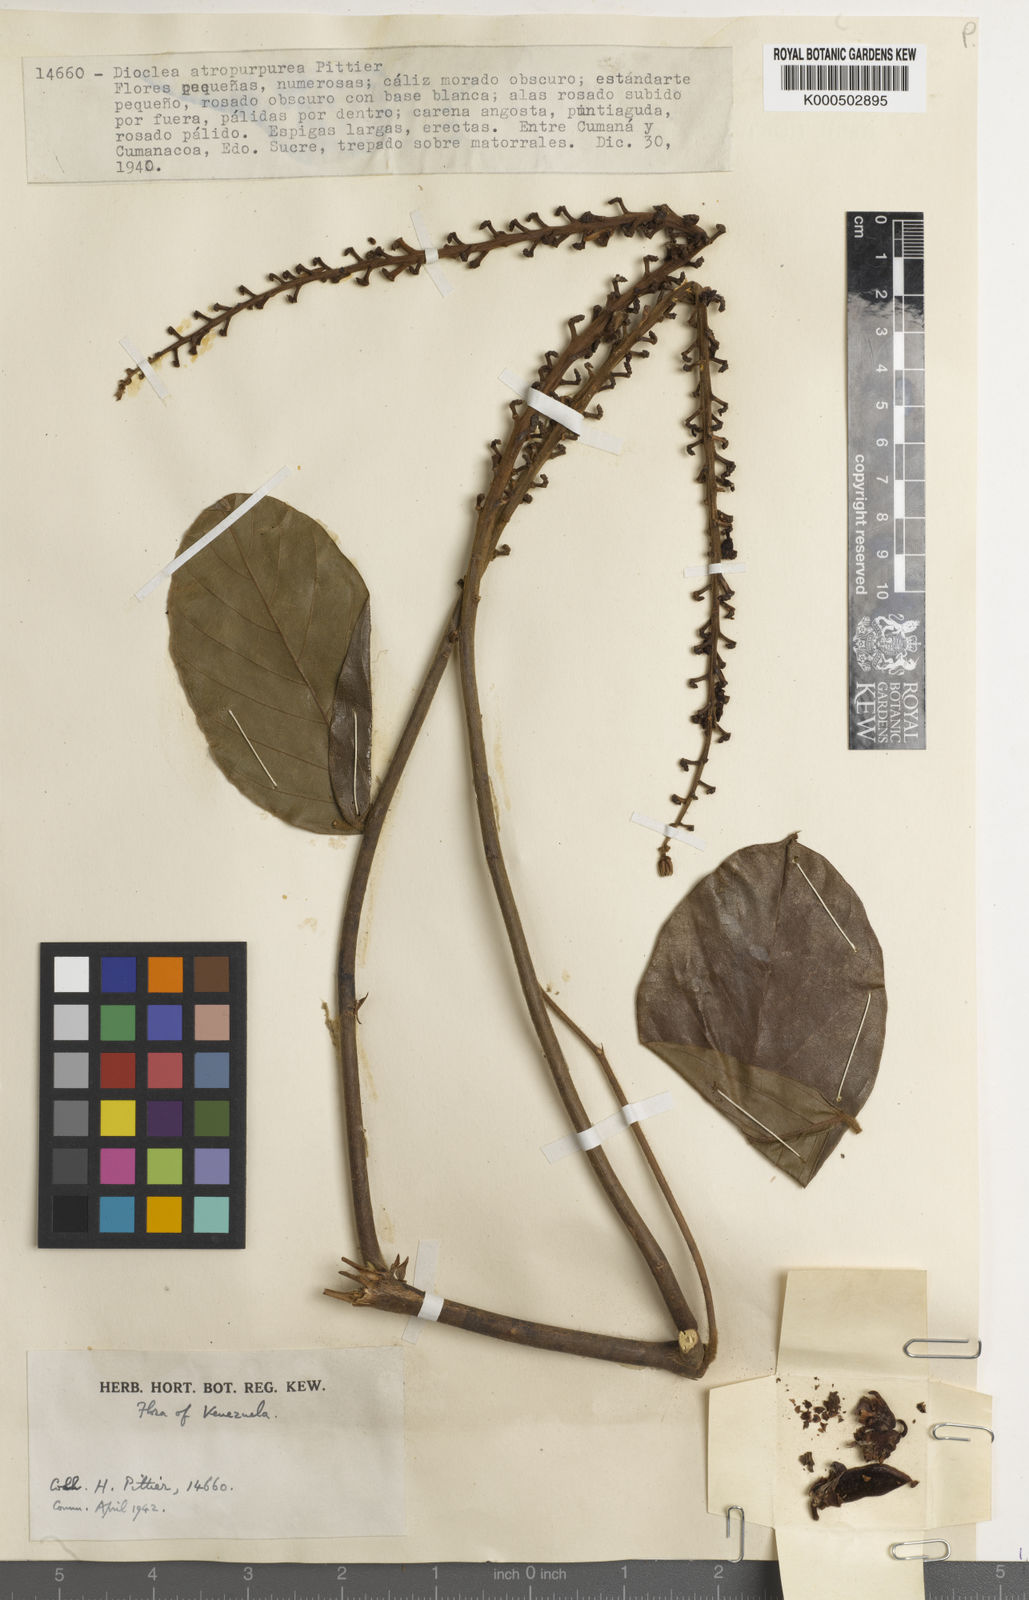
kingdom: Plantae
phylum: Tracheophyta
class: Magnoliopsida
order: Fabales
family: Fabaceae
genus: Dioclea
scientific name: Dioclea
